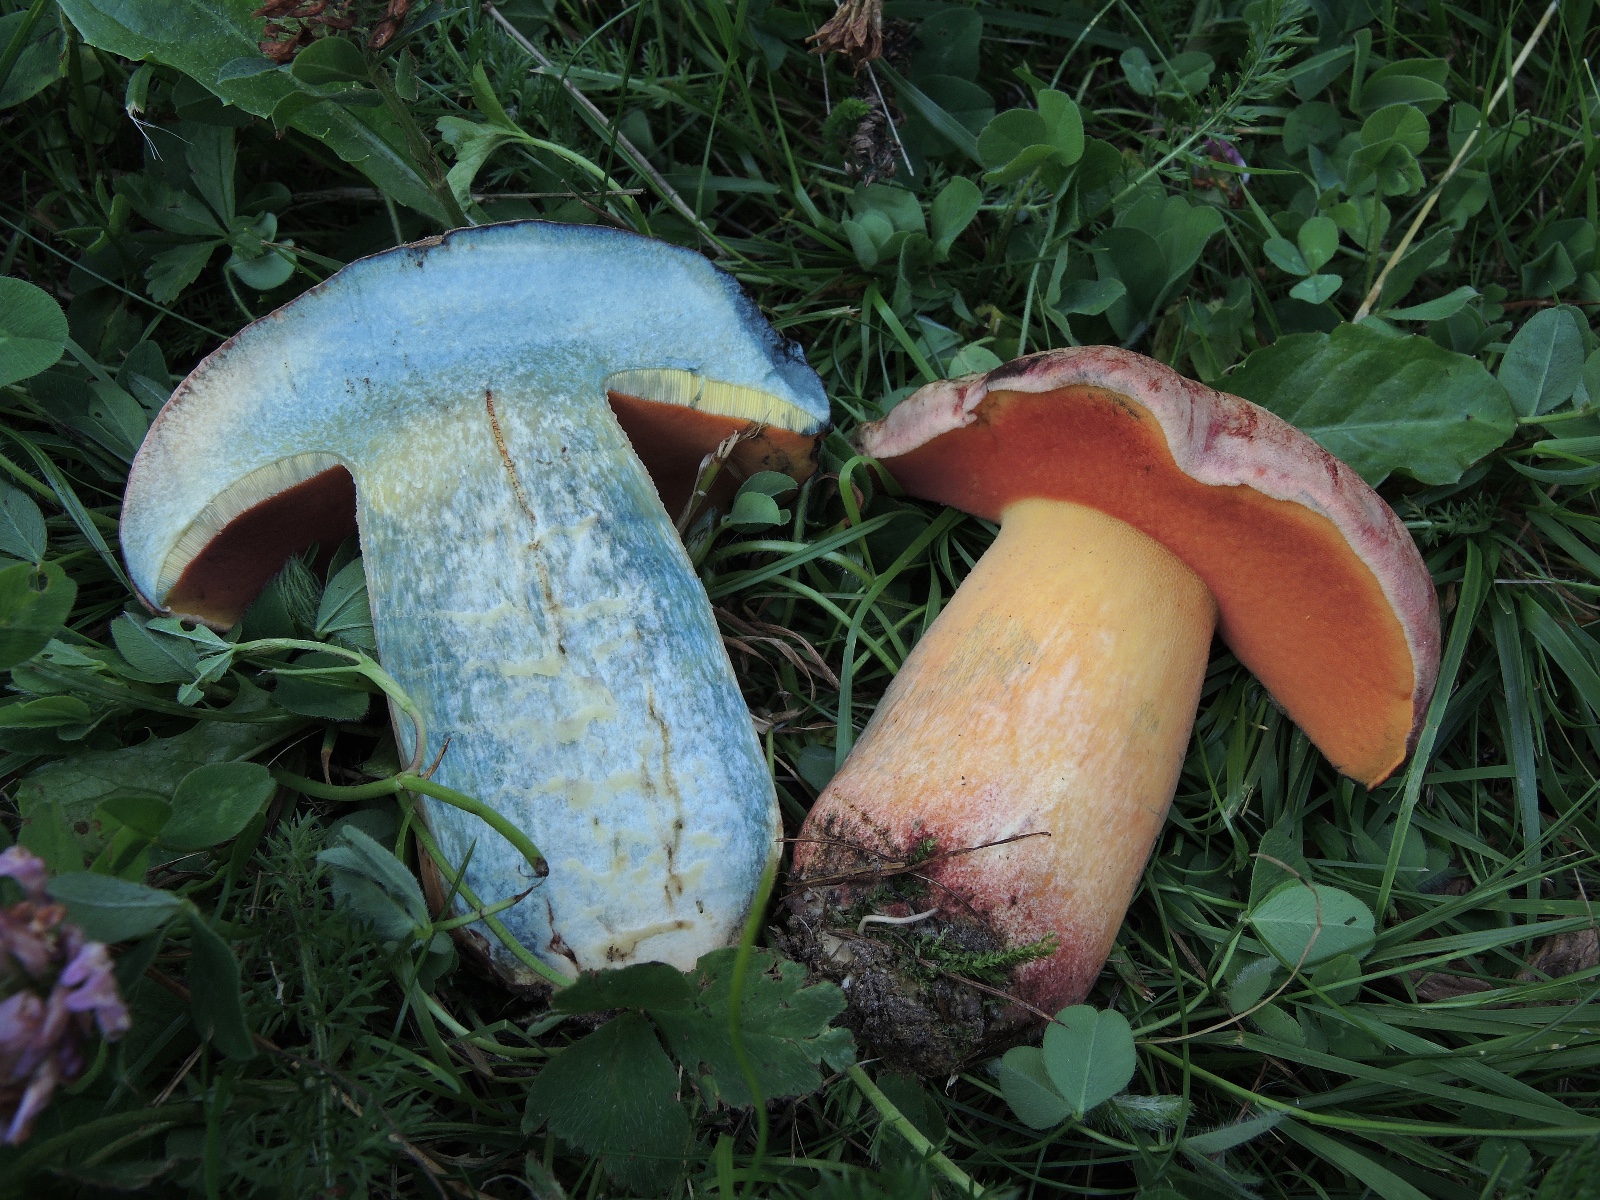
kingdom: Fungi
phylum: Basidiomycota
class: Agaricomycetes
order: Boletales
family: Boletaceae
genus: Rubroboletus
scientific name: Rubroboletus legaliae
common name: djævle-rørhat
